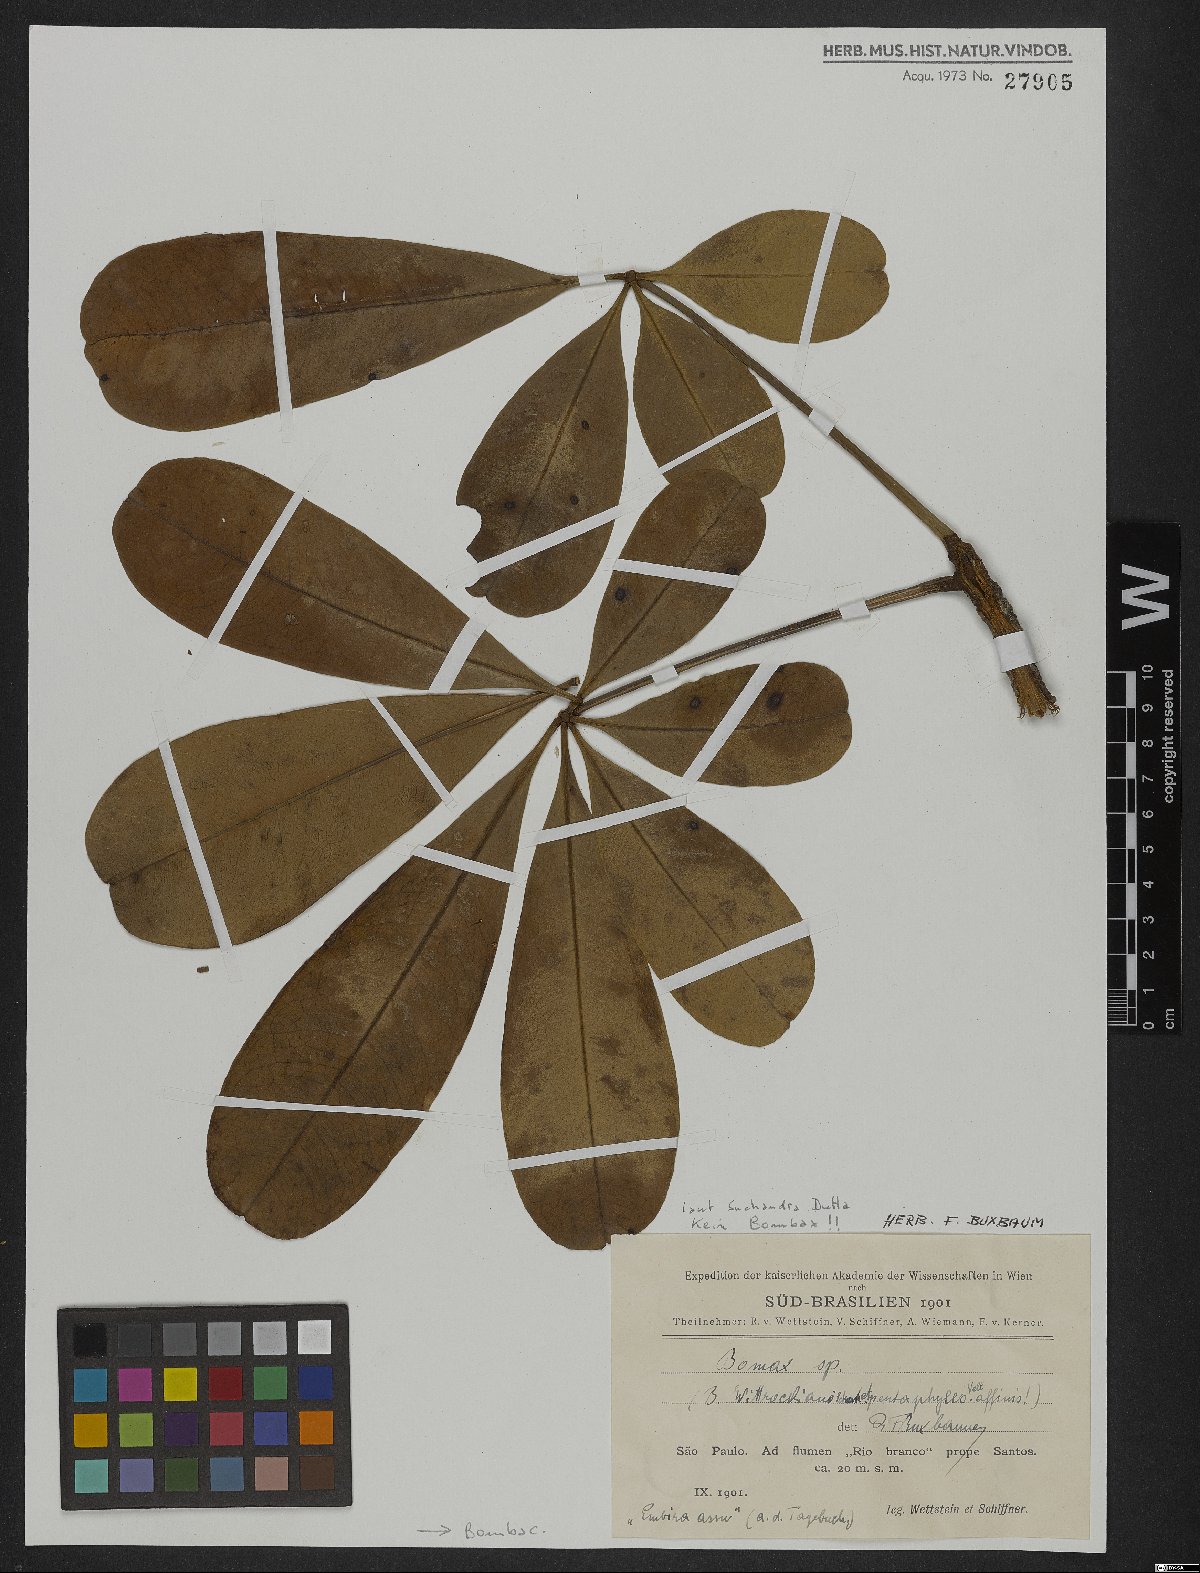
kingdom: Plantae
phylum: Tracheophyta
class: Magnoliopsida
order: Malvales
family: Malvaceae
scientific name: Malvaceae
